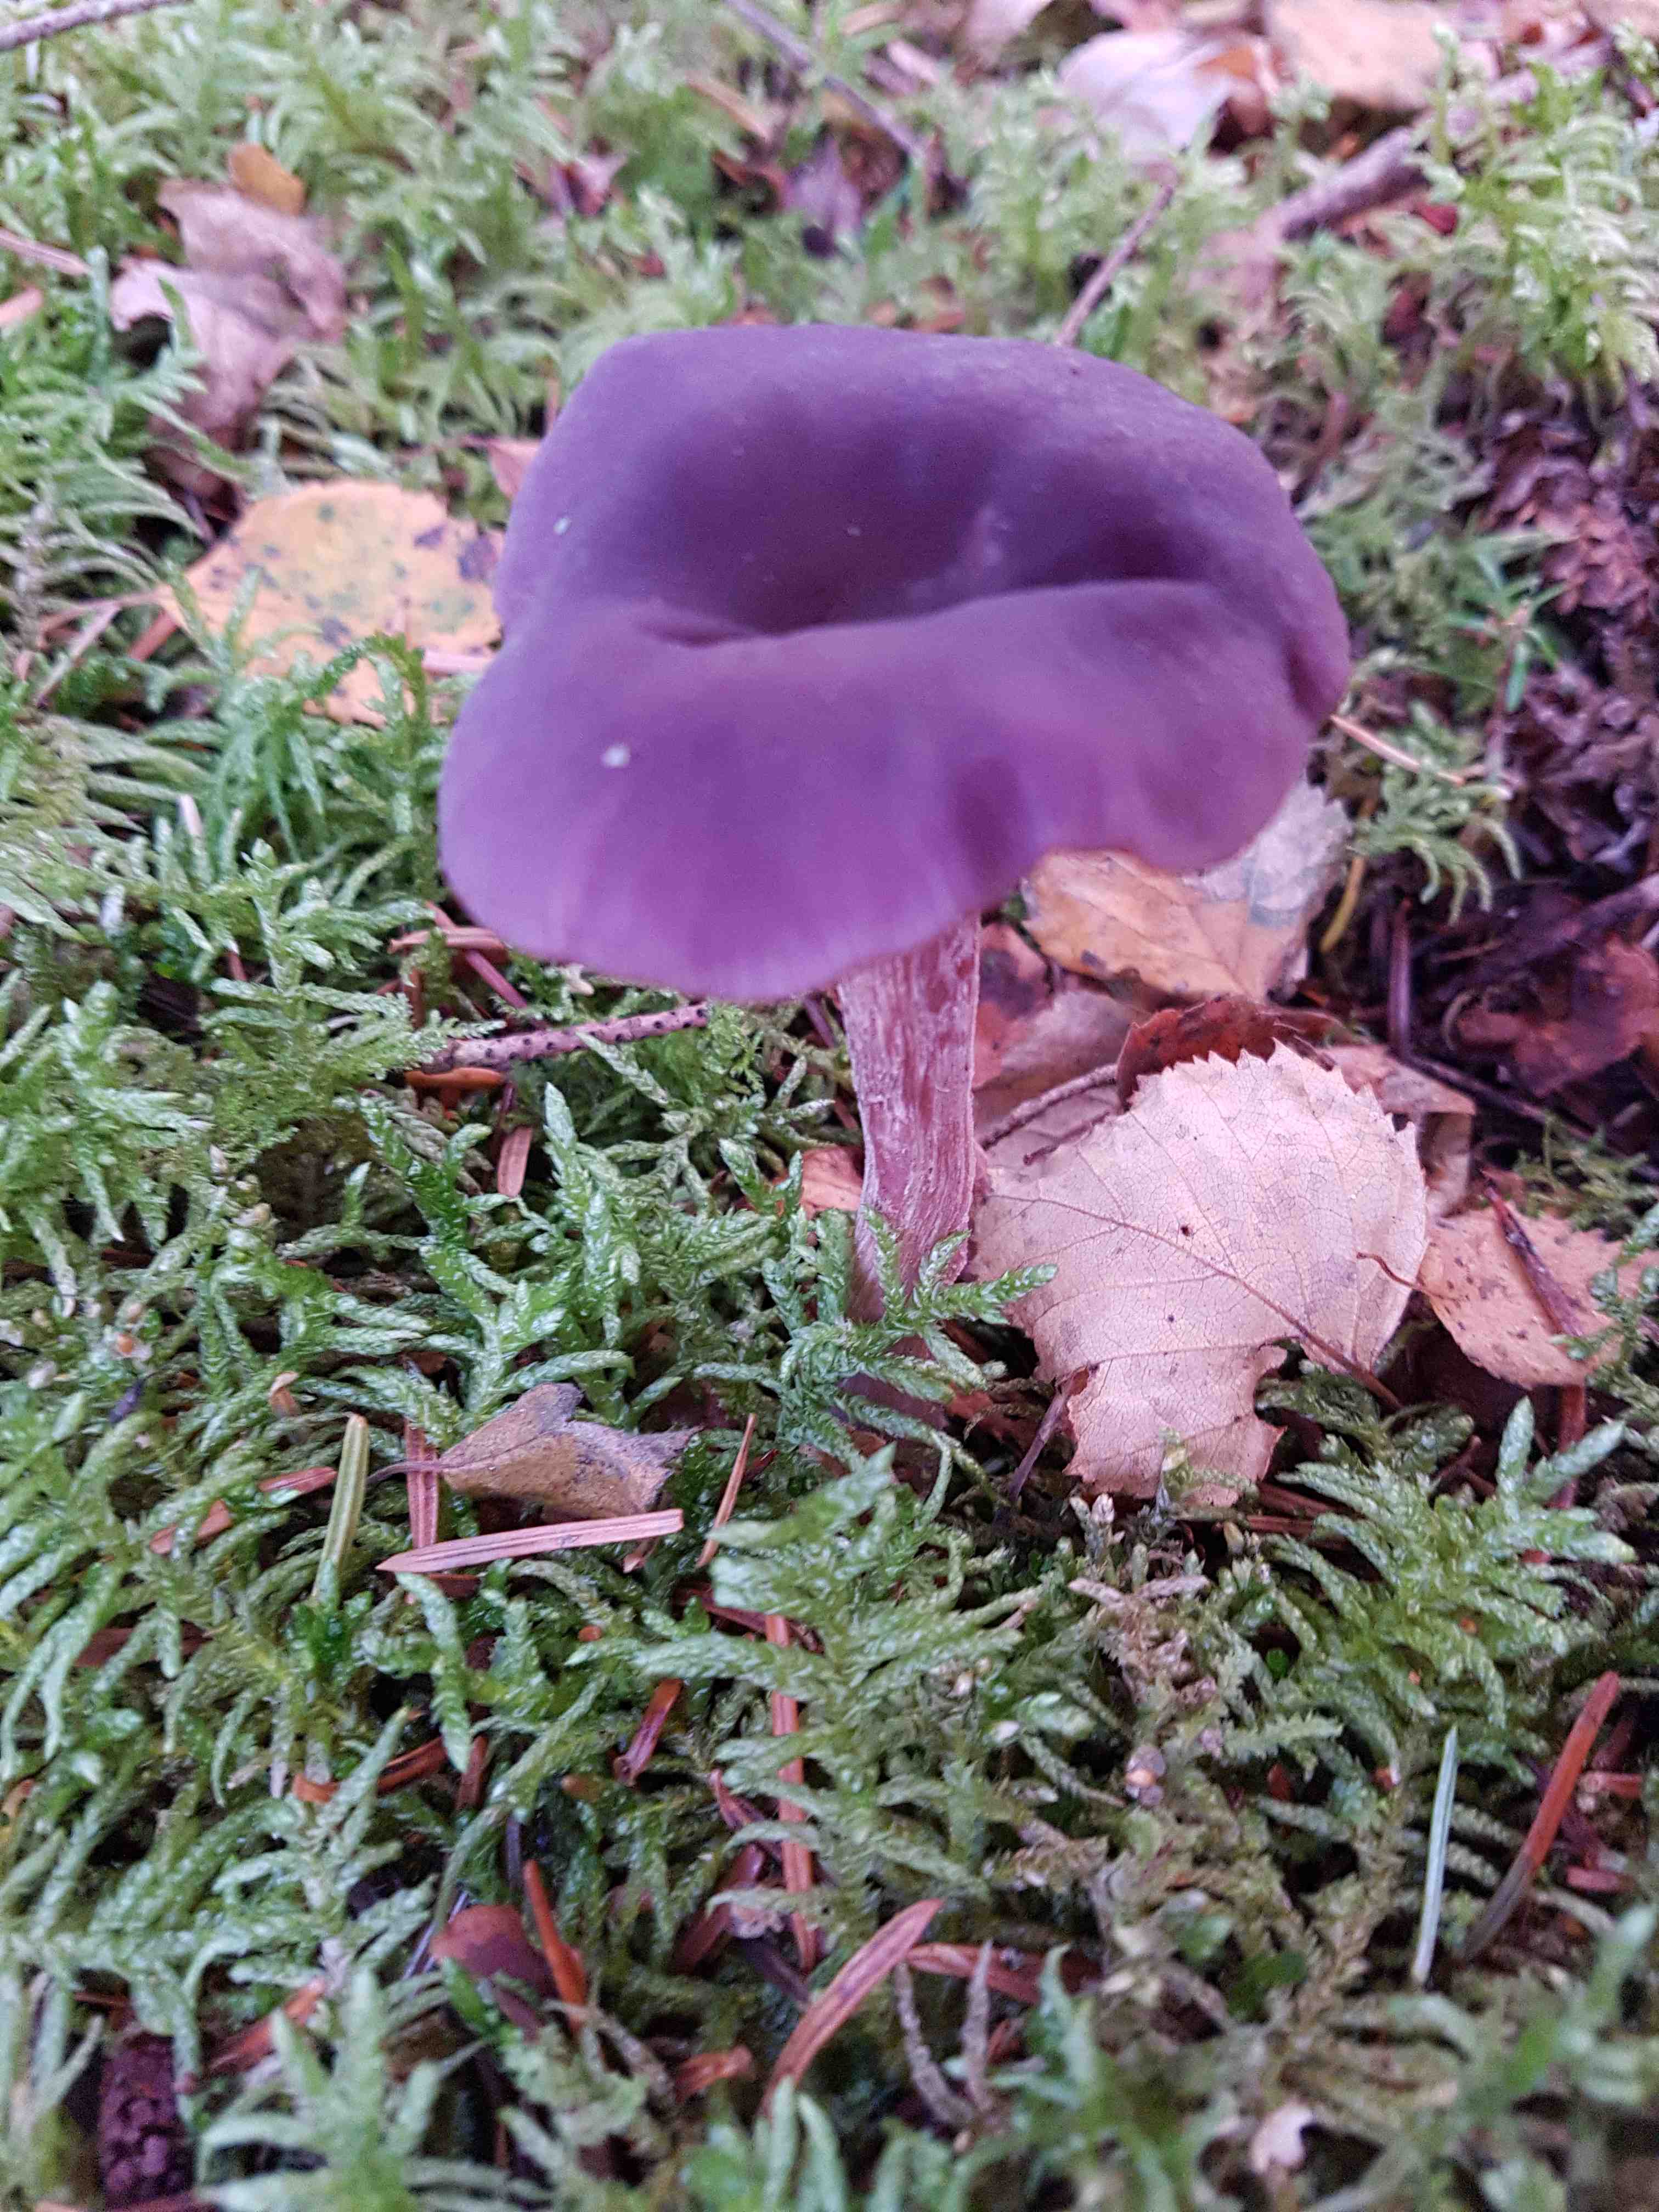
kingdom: Fungi
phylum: Basidiomycota
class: Agaricomycetes
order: Agaricales
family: Hydnangiaceae
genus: Laccaria
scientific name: Laccaria amethystina
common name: violet ametysthat
